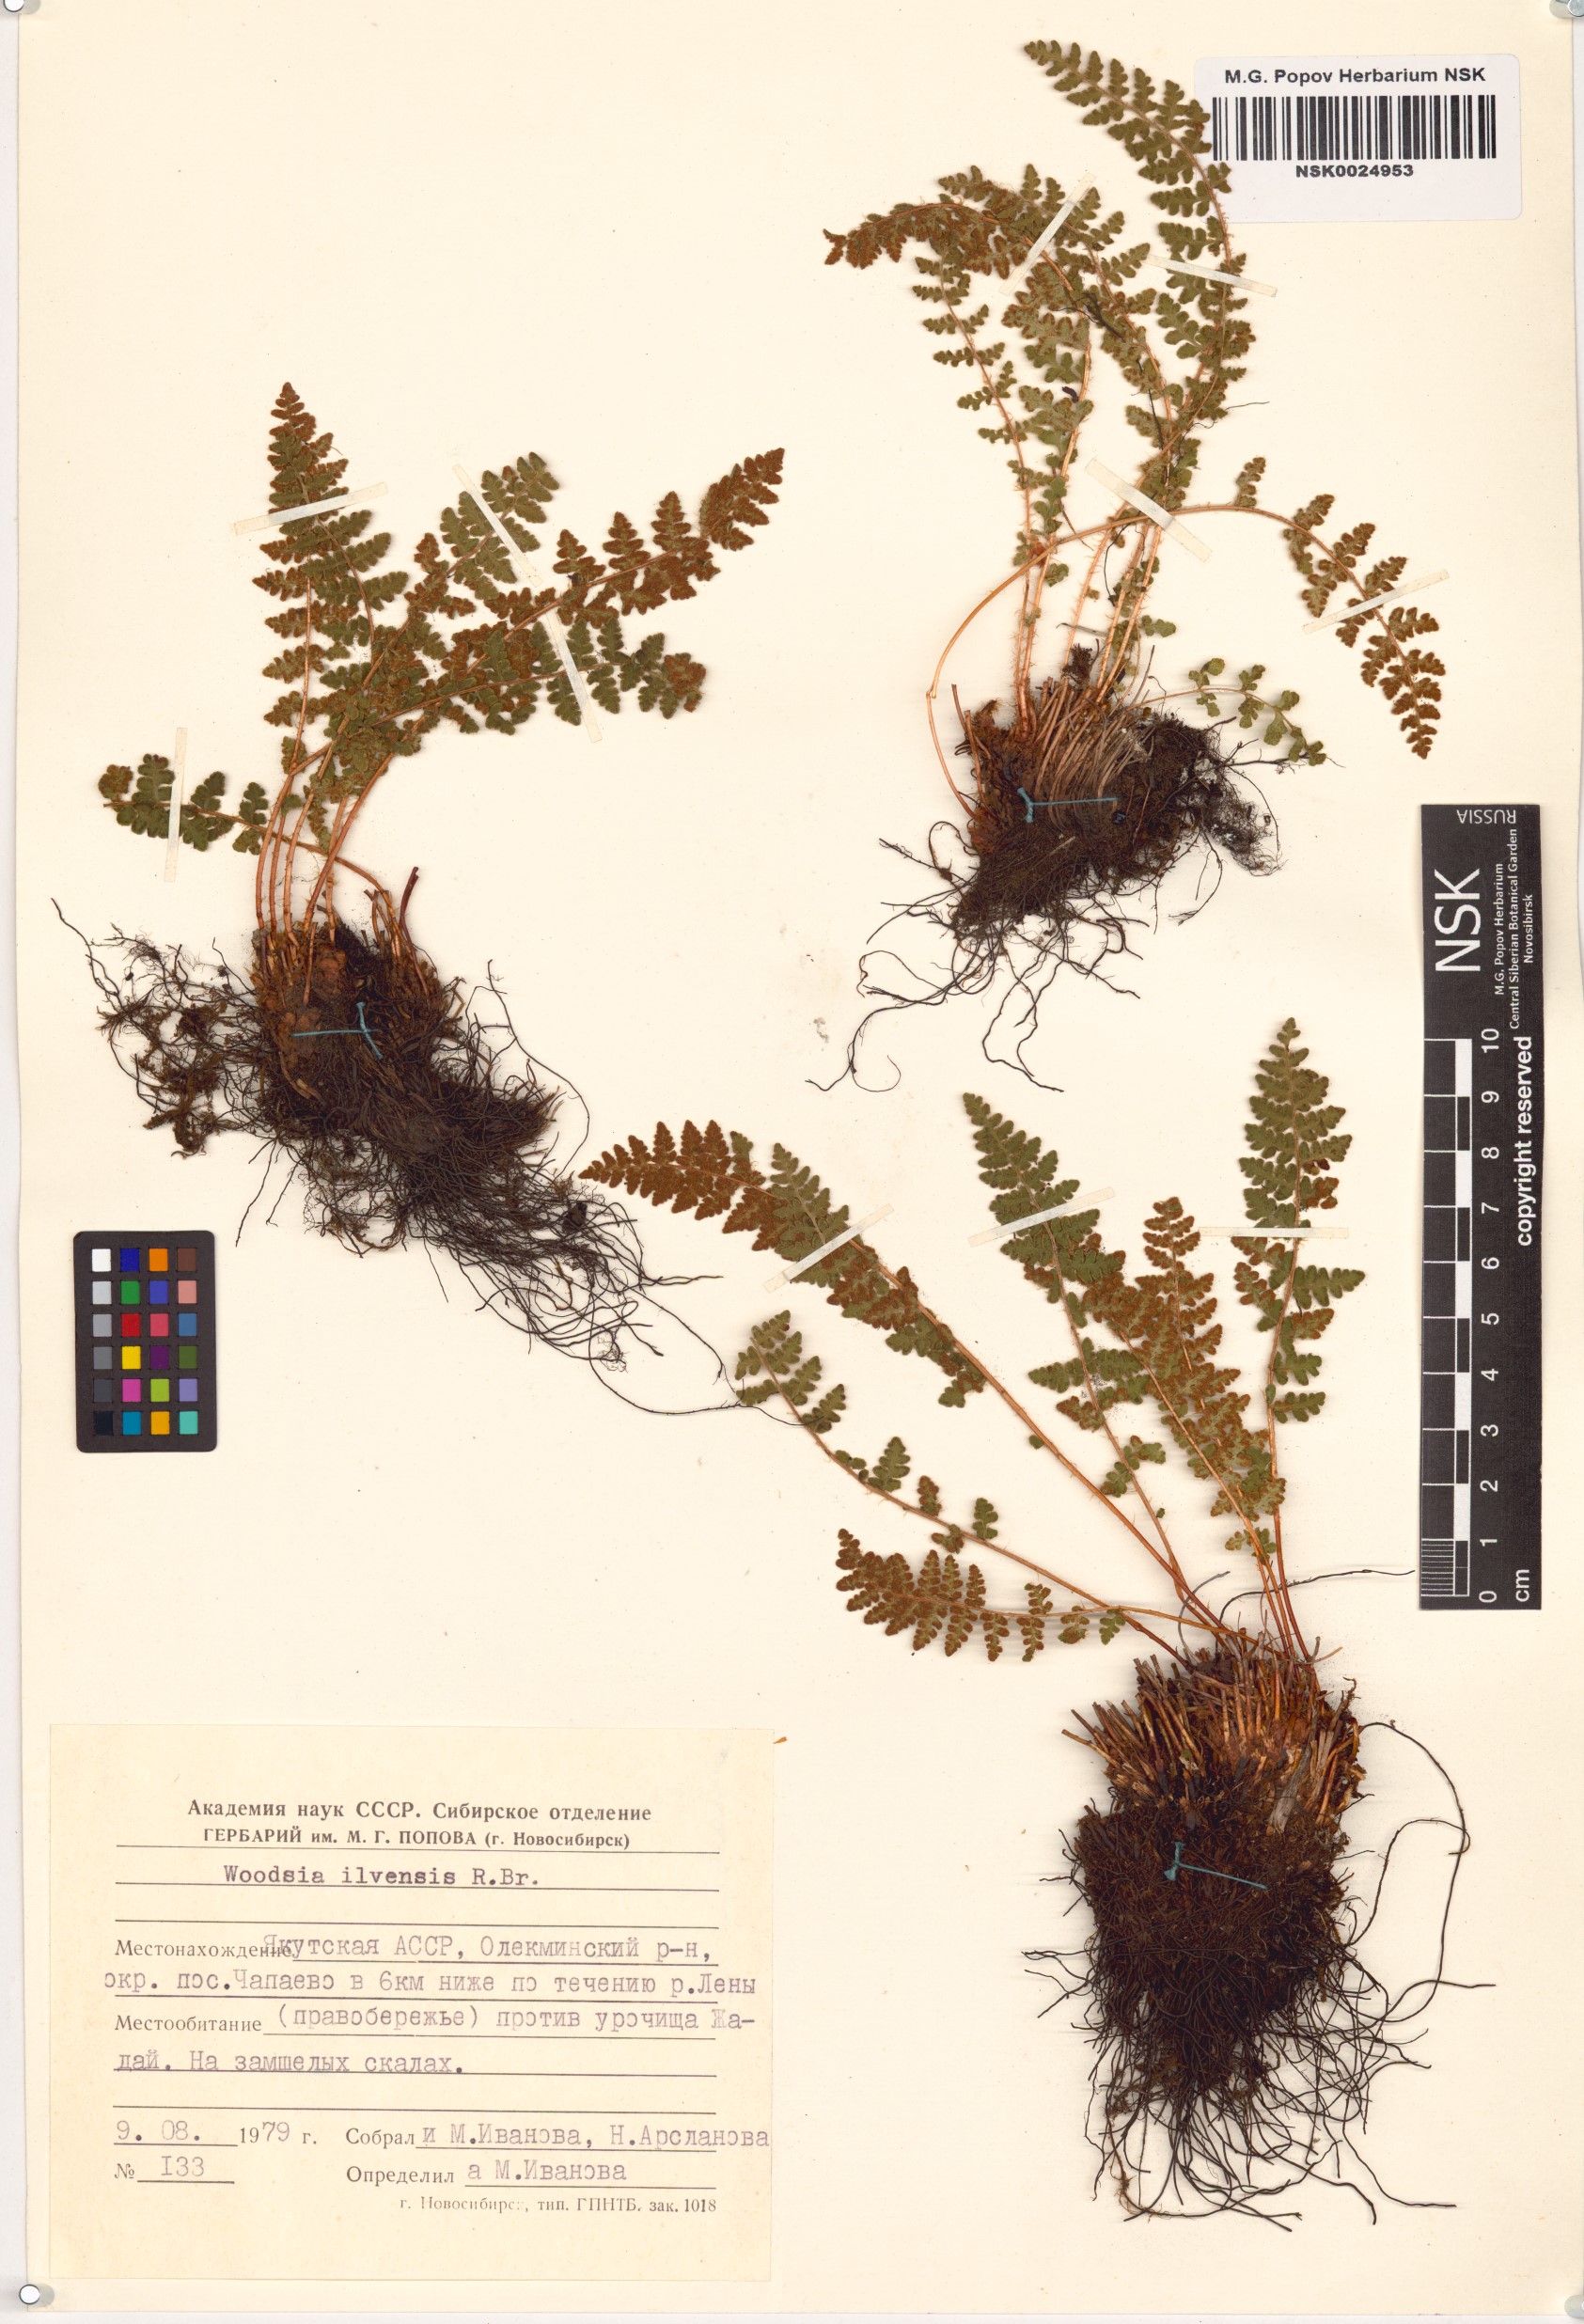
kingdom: Plantae
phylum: Tracheophyta
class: Polypodiopsida
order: Polypodiales
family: Woodsiaceae
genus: Woodsia
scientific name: Woodsia ilvensis
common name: Fragrant woodsia
